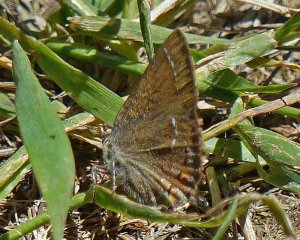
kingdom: Animalia
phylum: Arthropoda
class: Insecta
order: Lepidoptera
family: Lycaenidae
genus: Mitoura
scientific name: Mitoura nelsoni
